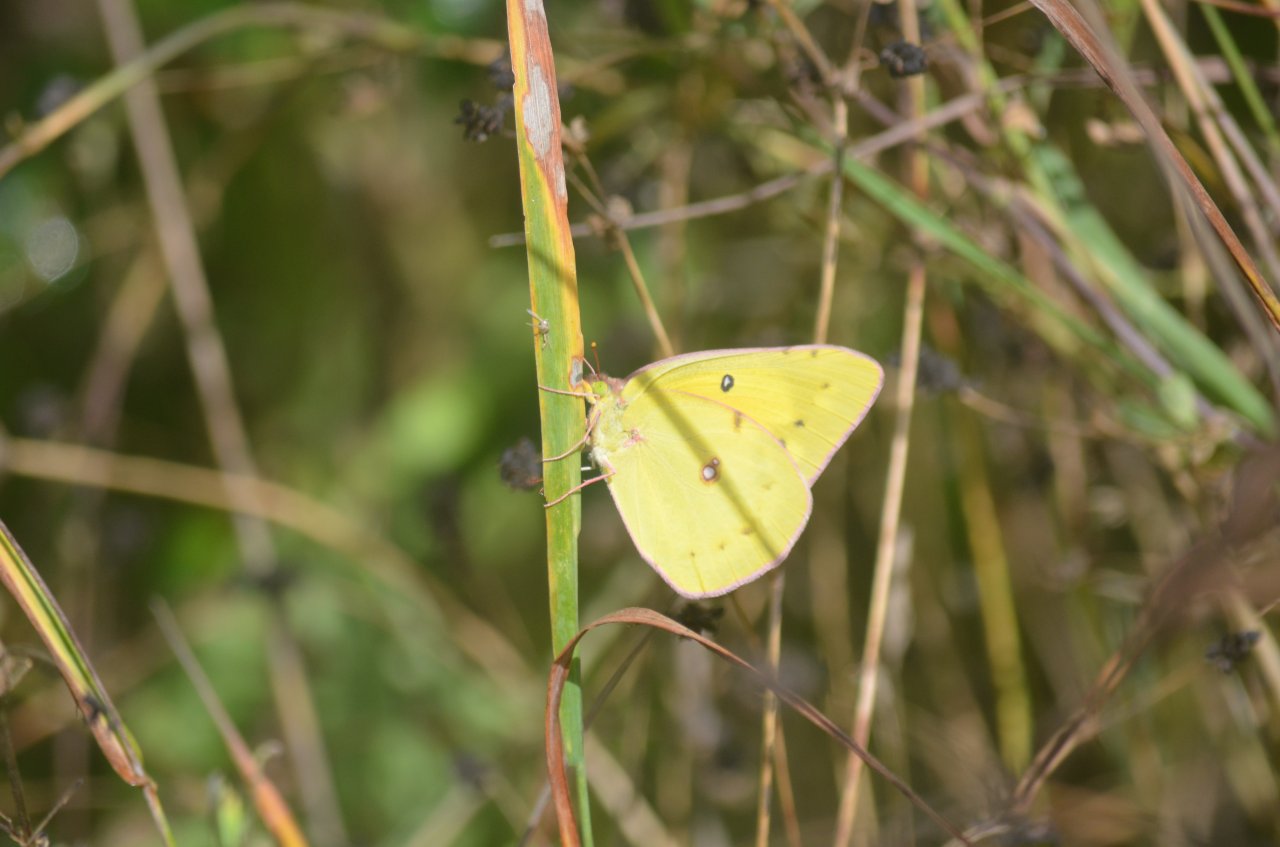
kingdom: Animalia
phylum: Arthropoda
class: Insecta
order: Lepidoptera
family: Pieridae
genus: Colias
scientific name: Colias eurytheme
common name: Orange Sulphur
